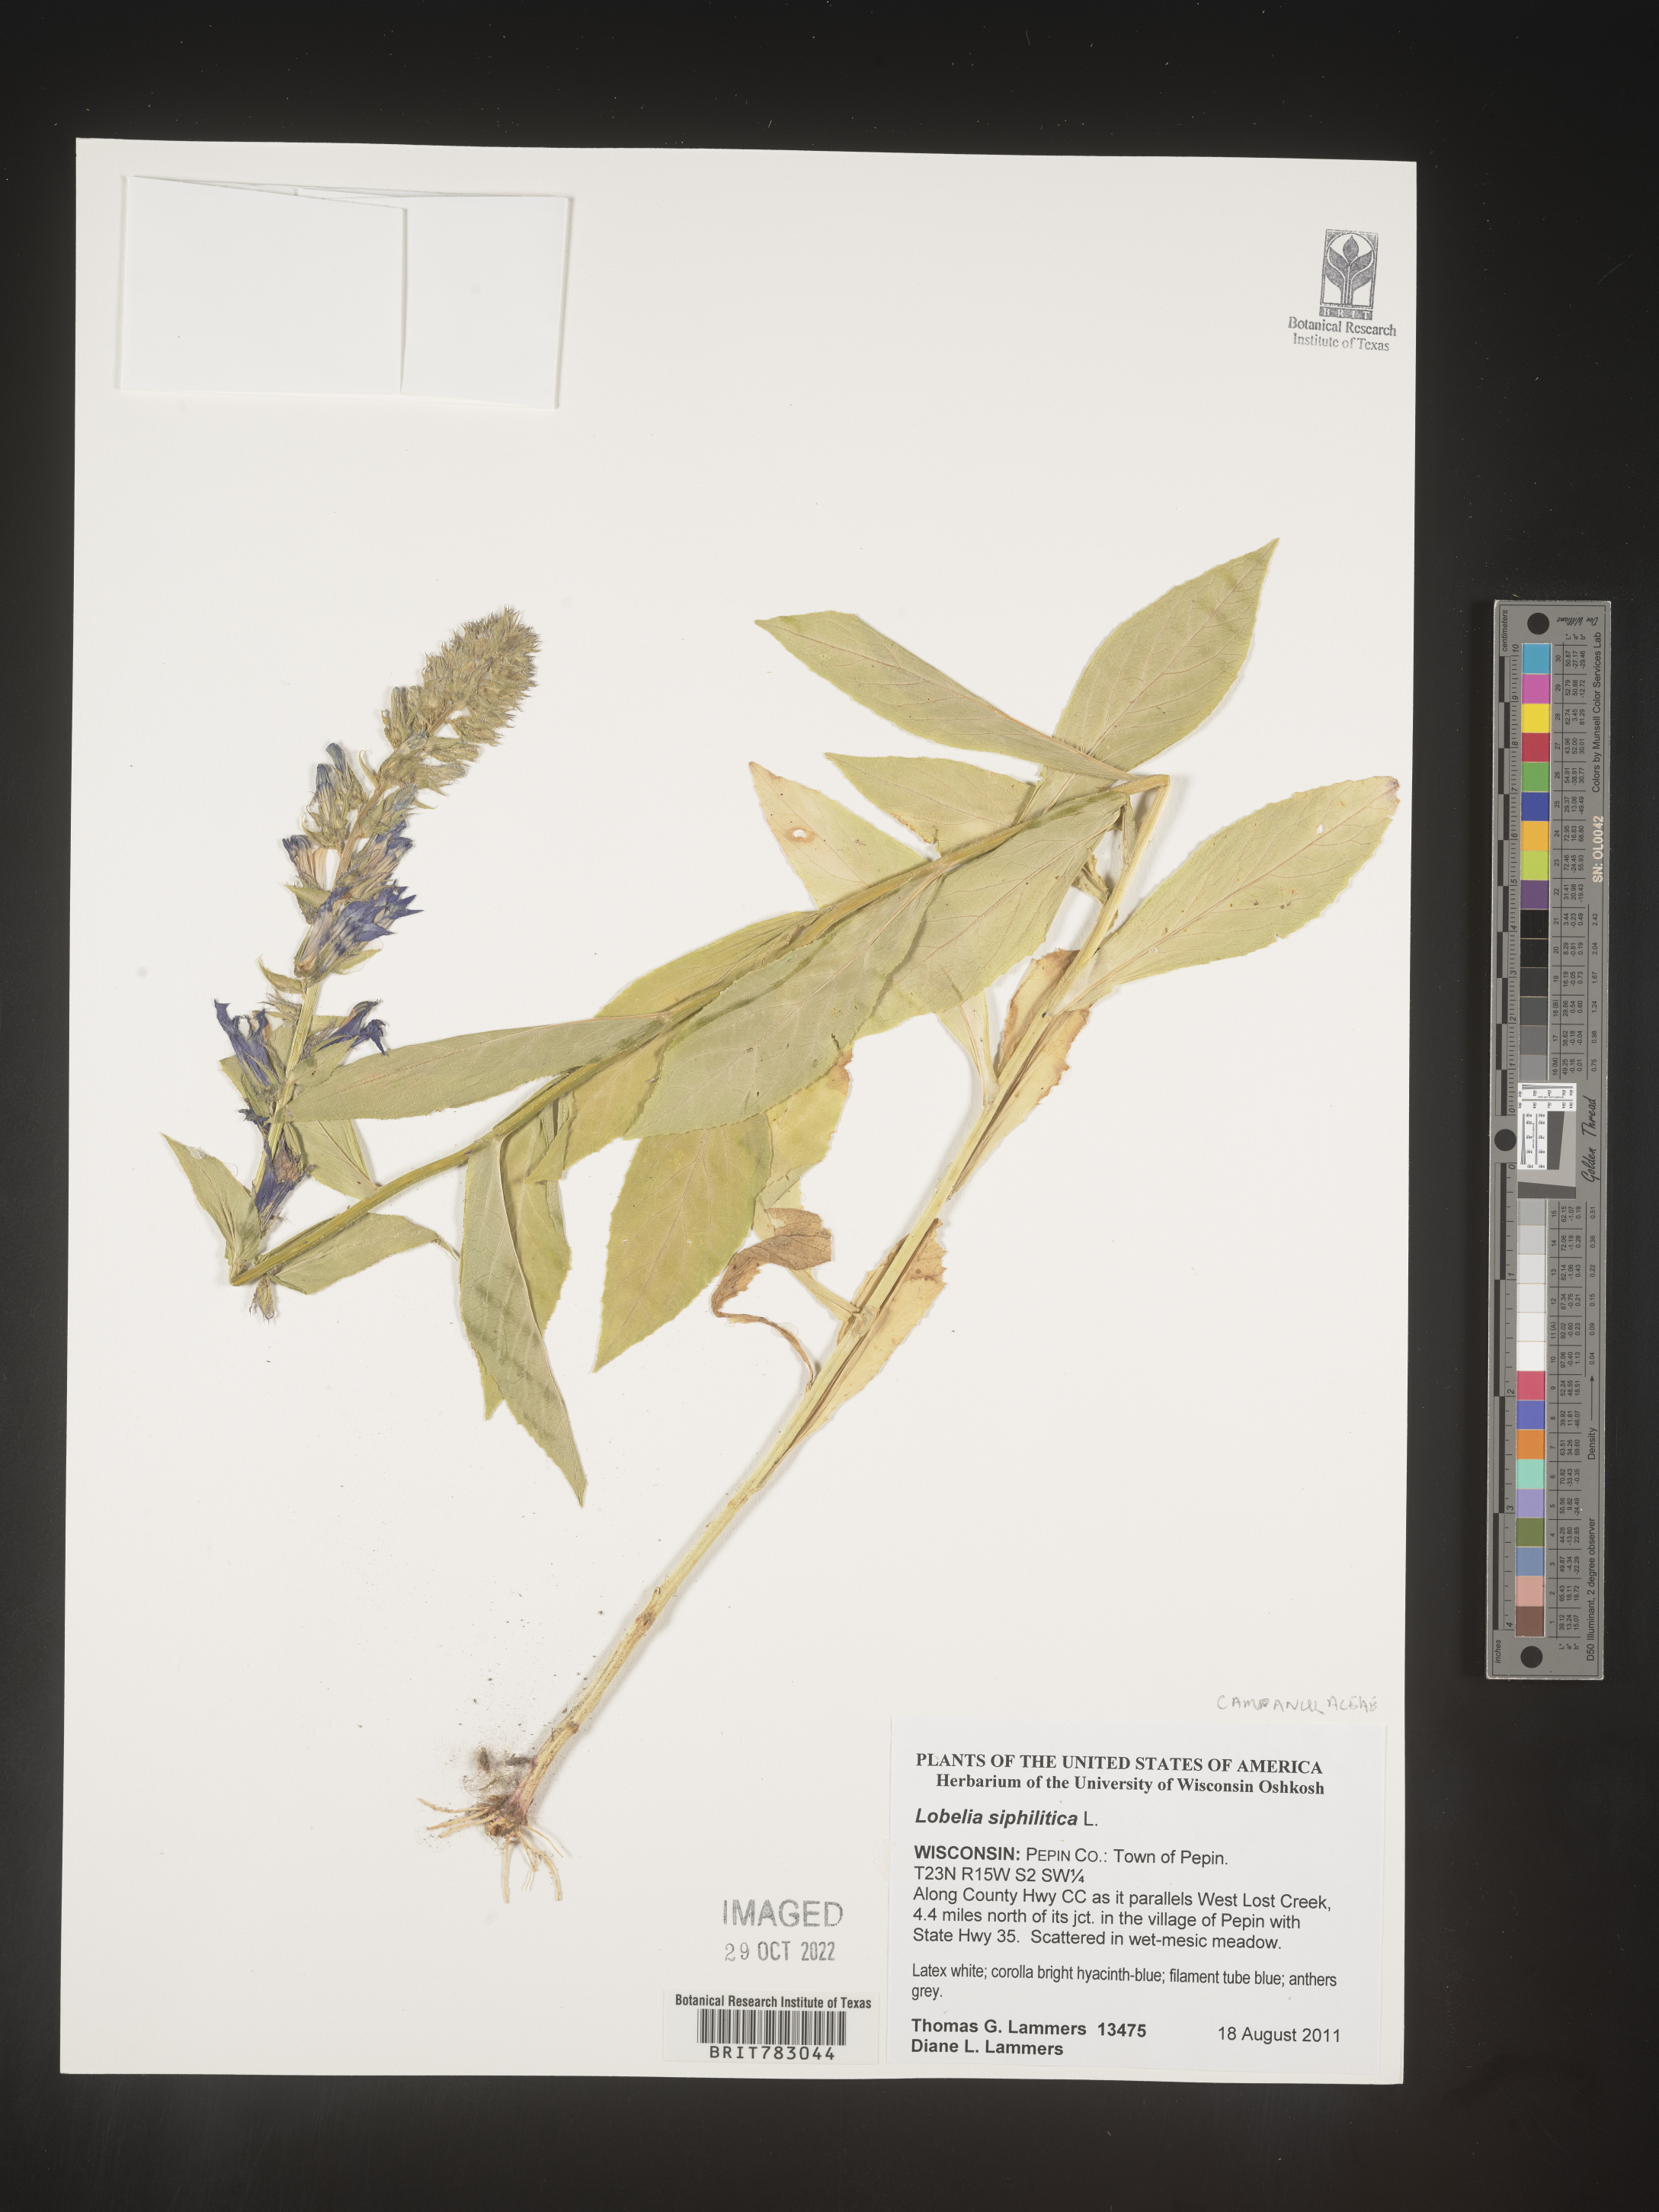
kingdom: Plantae
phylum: Tracheophyta
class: Magnoliopsida
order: Asterales
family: Campanulaceae
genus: Lobelia
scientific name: Lobelia siphilitica
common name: Great lobelia
